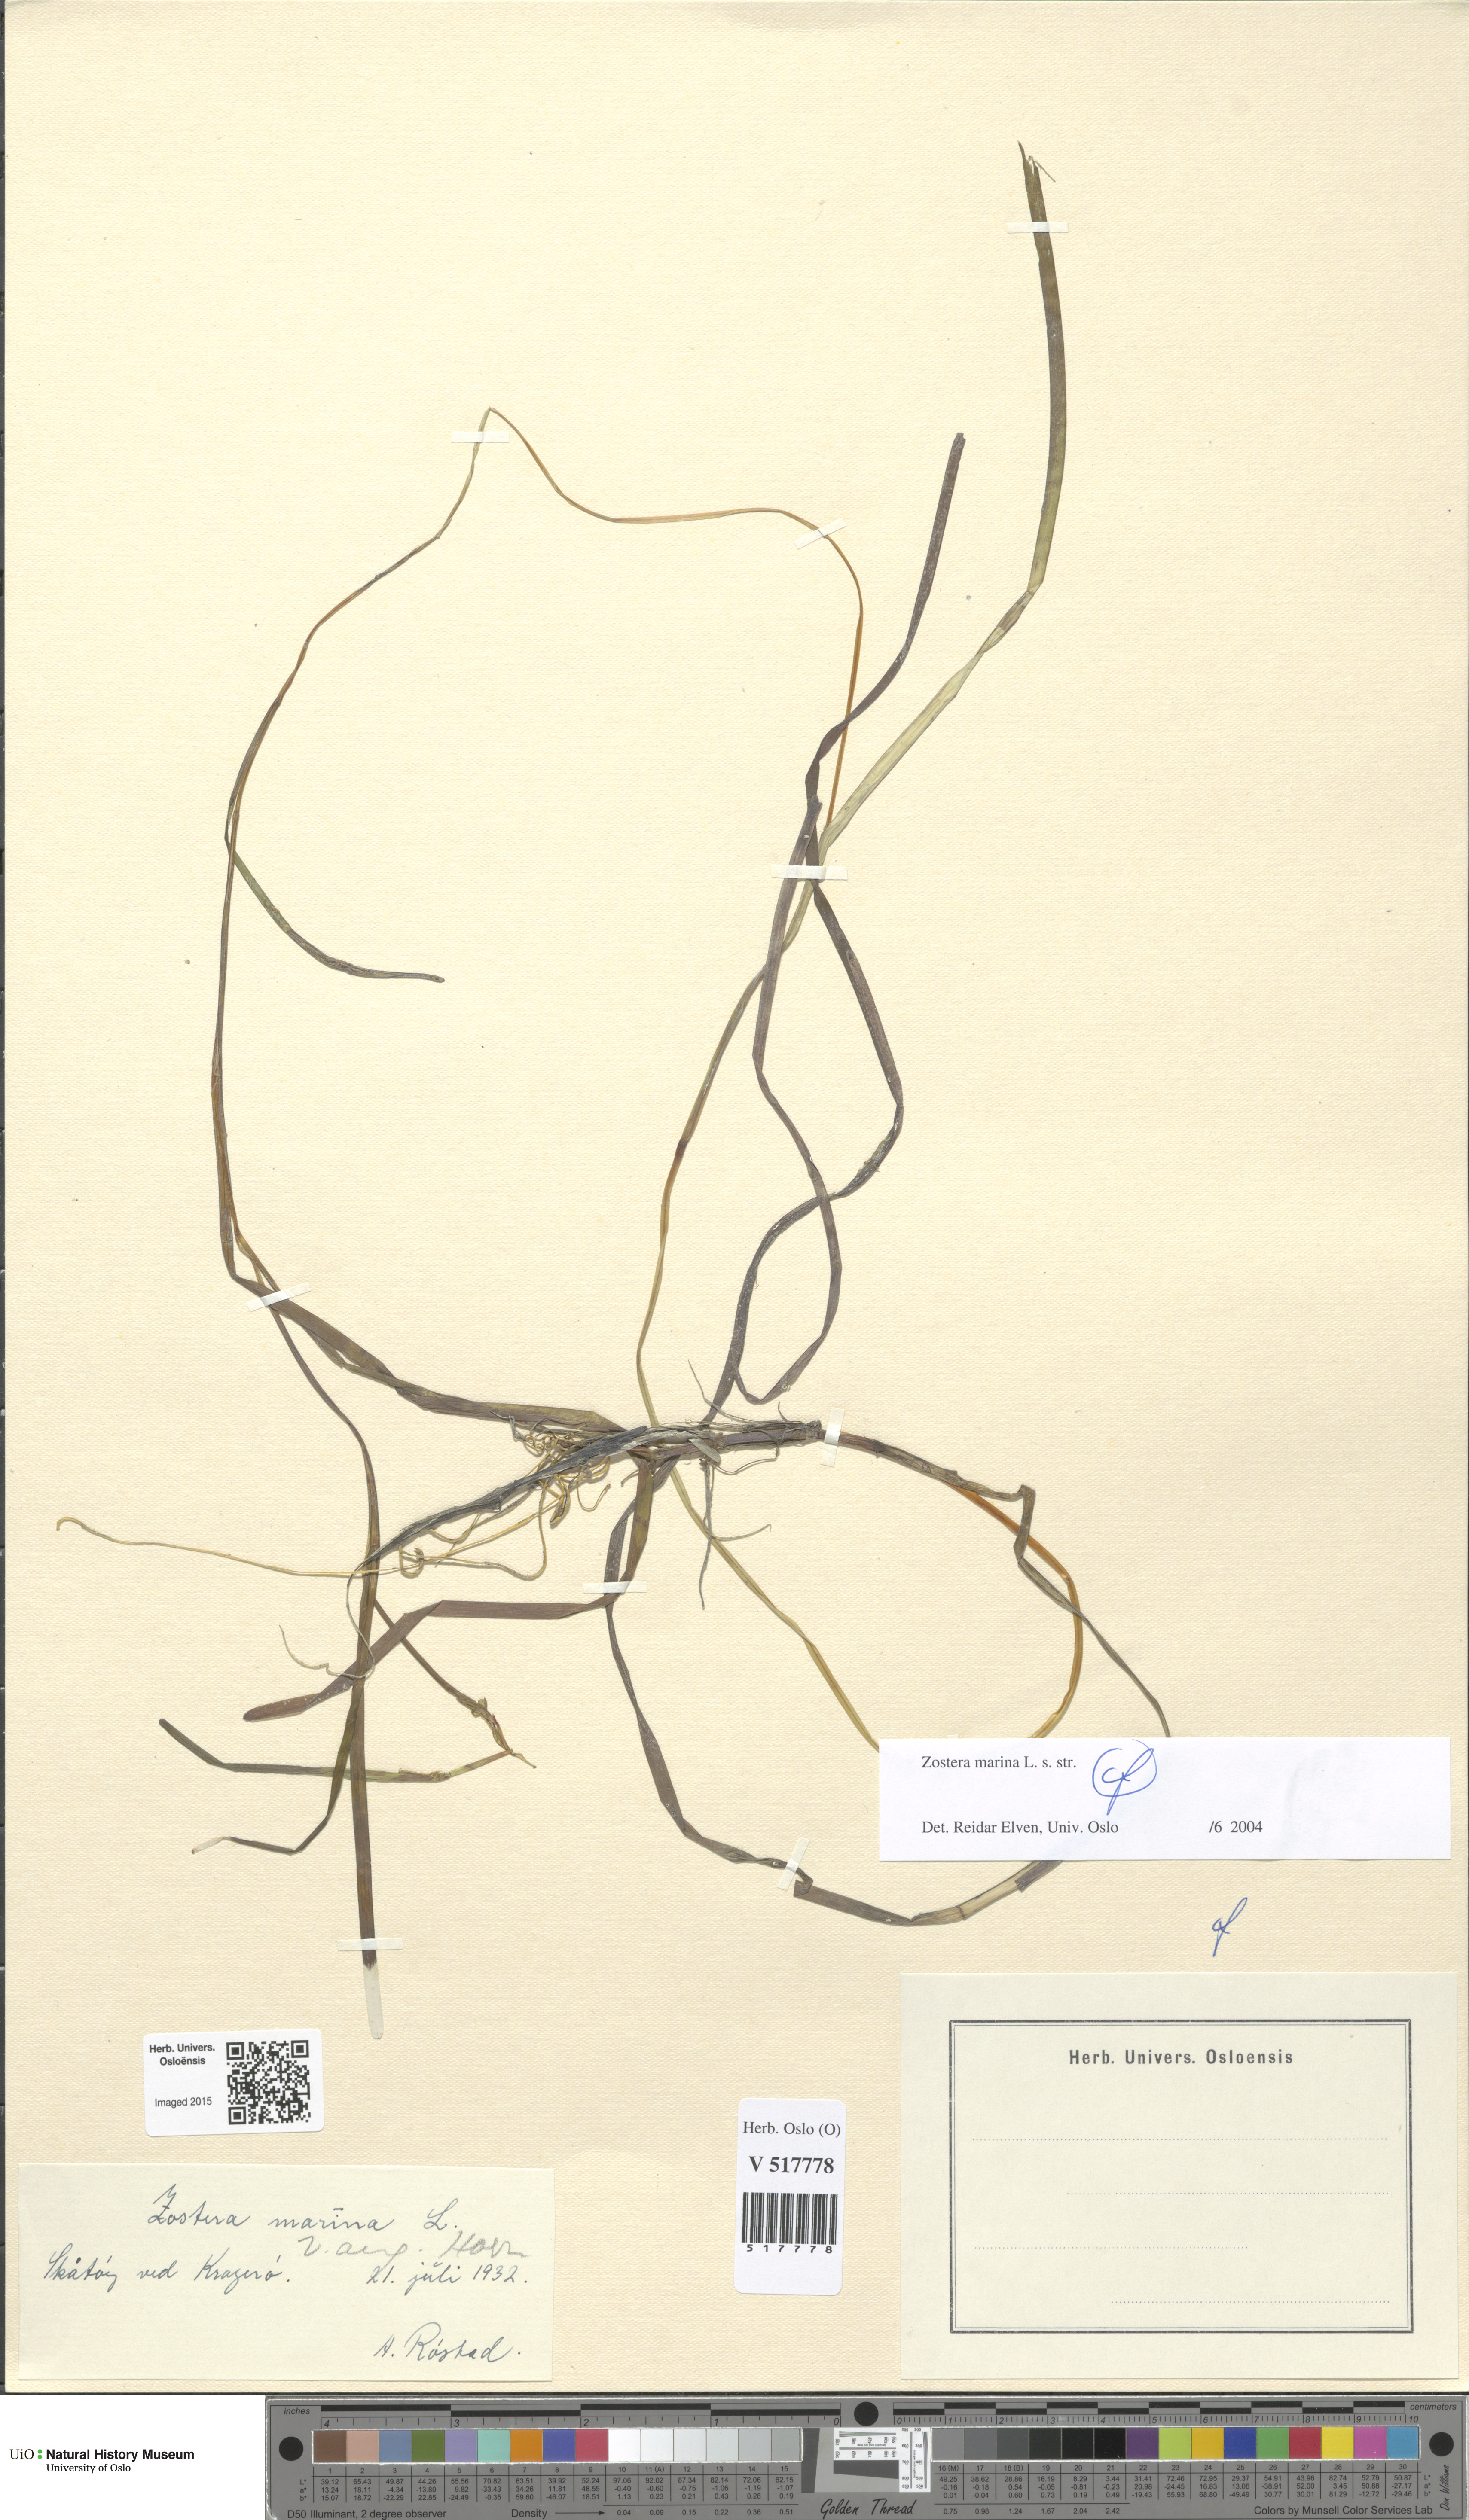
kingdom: Plantae
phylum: Tracheophyta
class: Liliopsida
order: Alismatales
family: Zosteraceae
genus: Zostera
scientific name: Zostera marina
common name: Eelgrass
